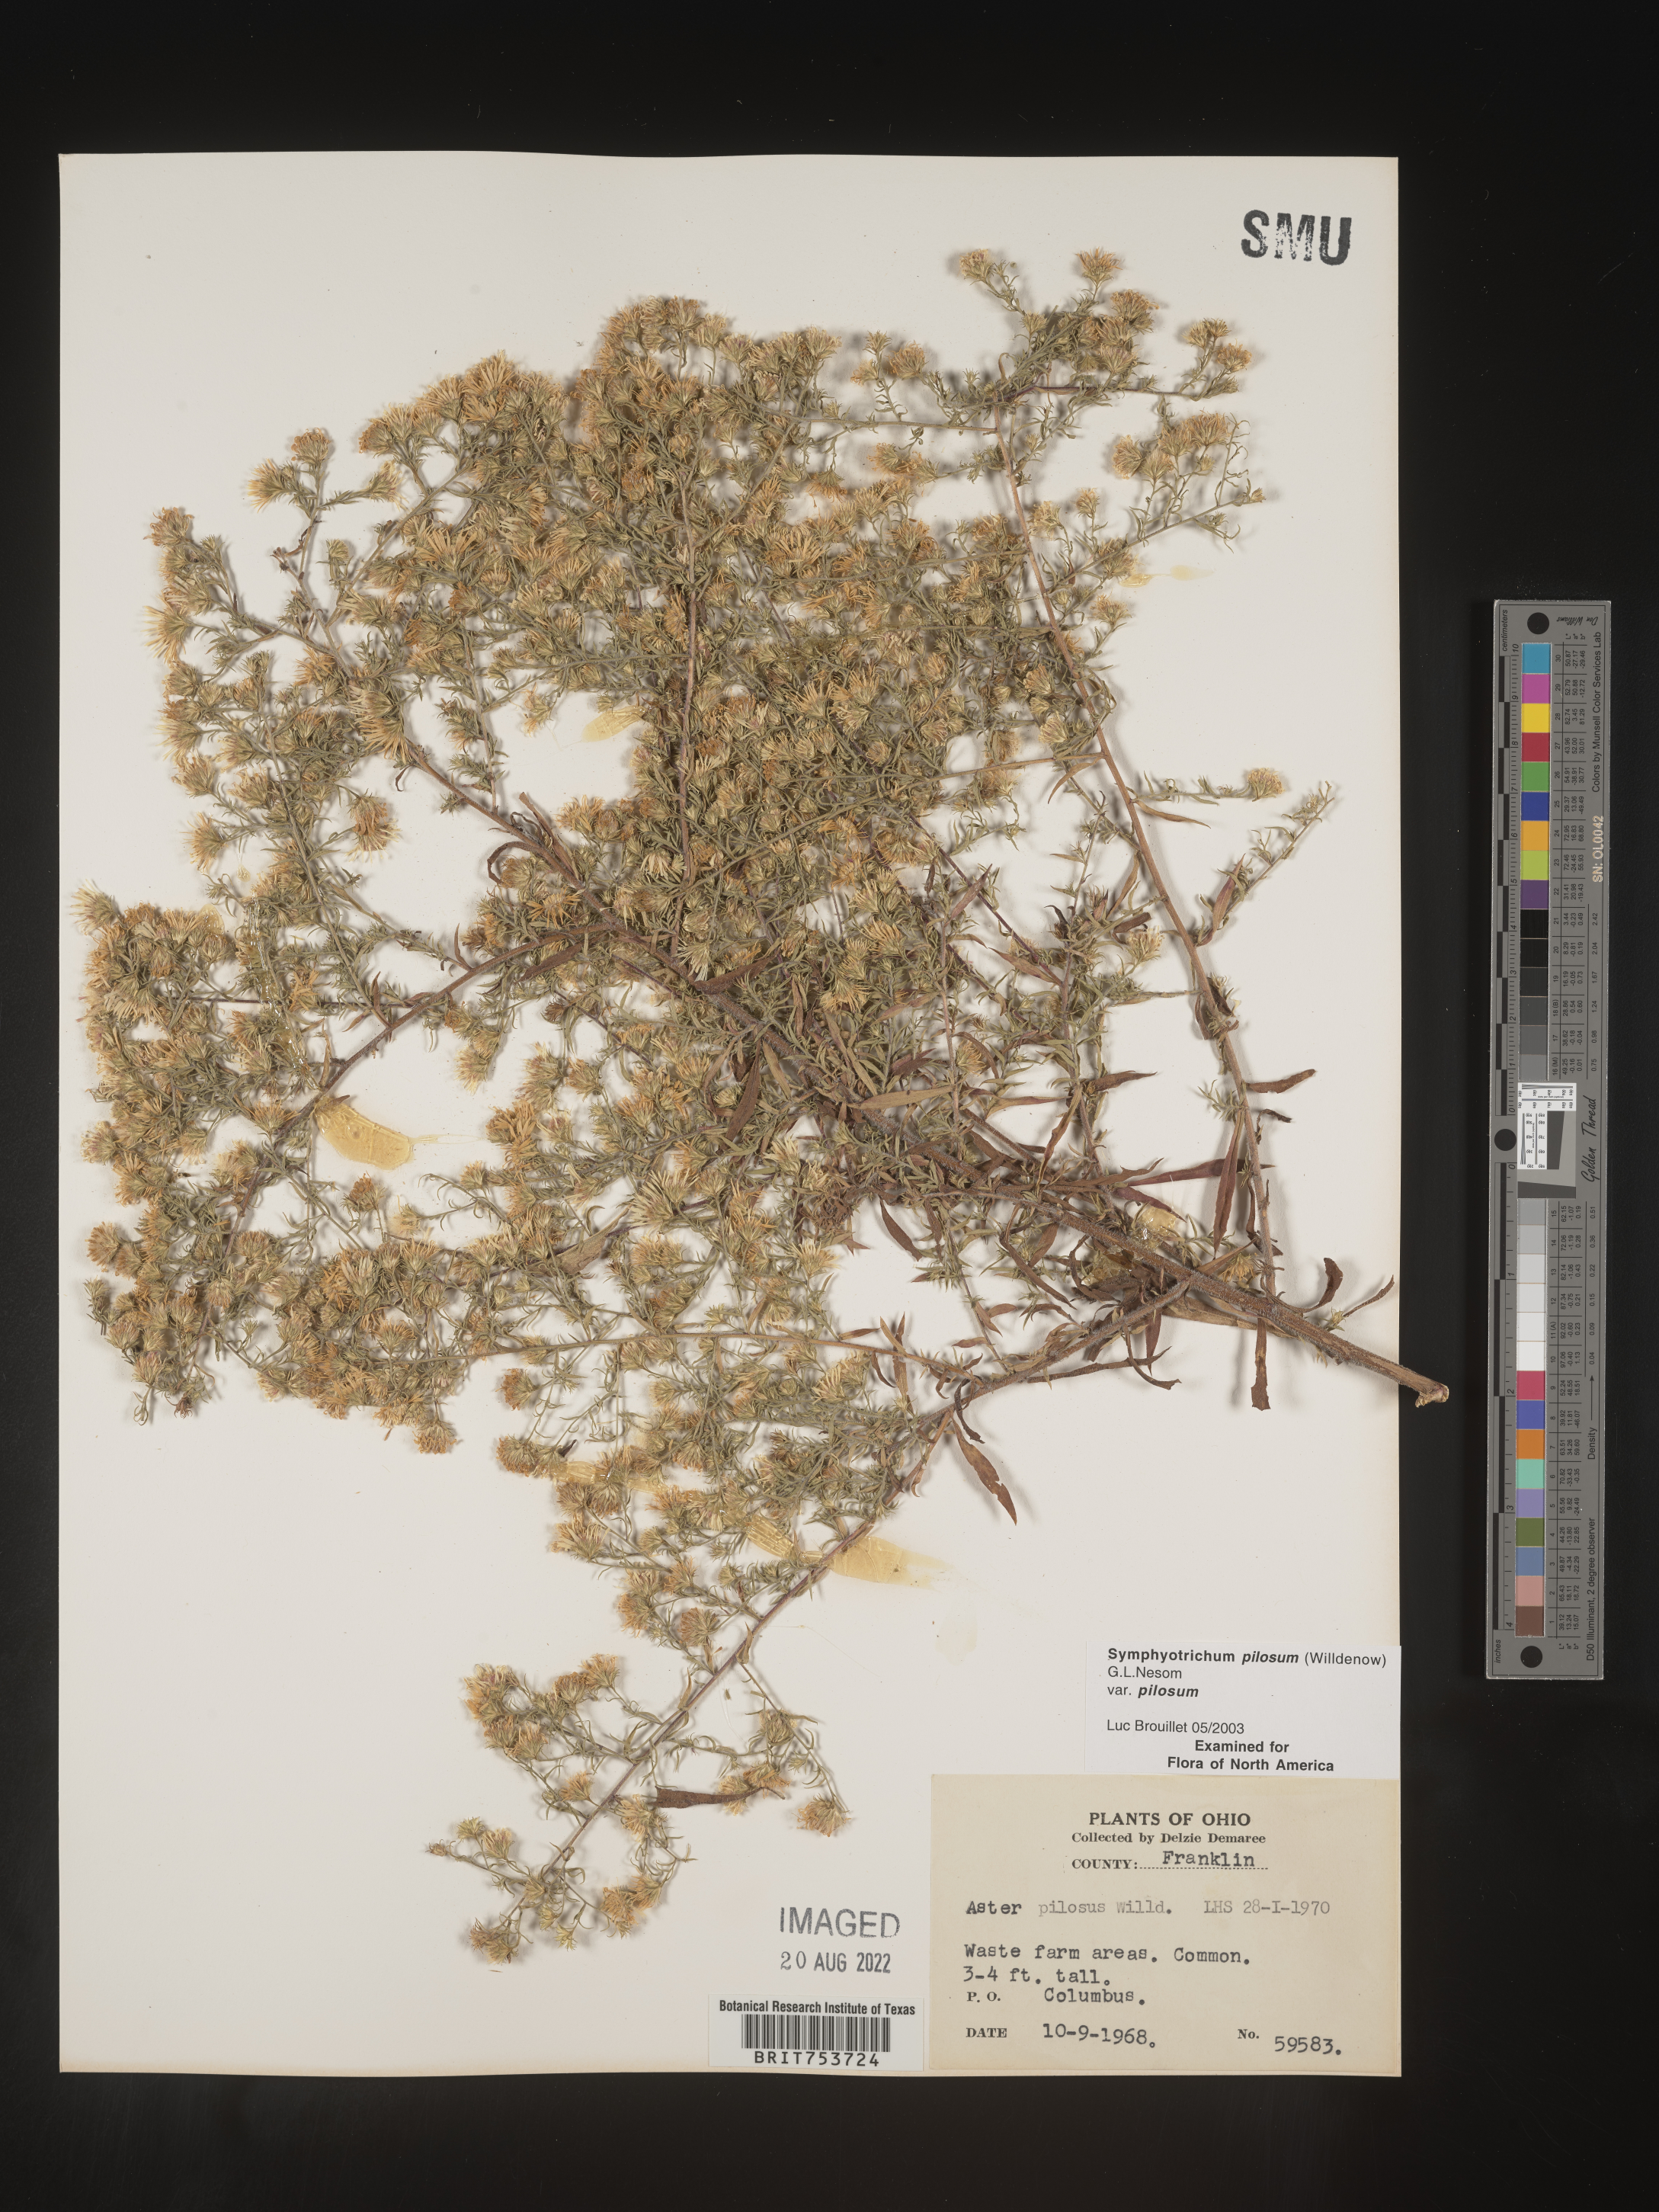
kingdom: Plantae
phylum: Tracheophyta
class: Magnoliopsida
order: Asterales
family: Asteraceae
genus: Symphyotrichum
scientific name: Symphyotrichum pilosum
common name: Awl aster
